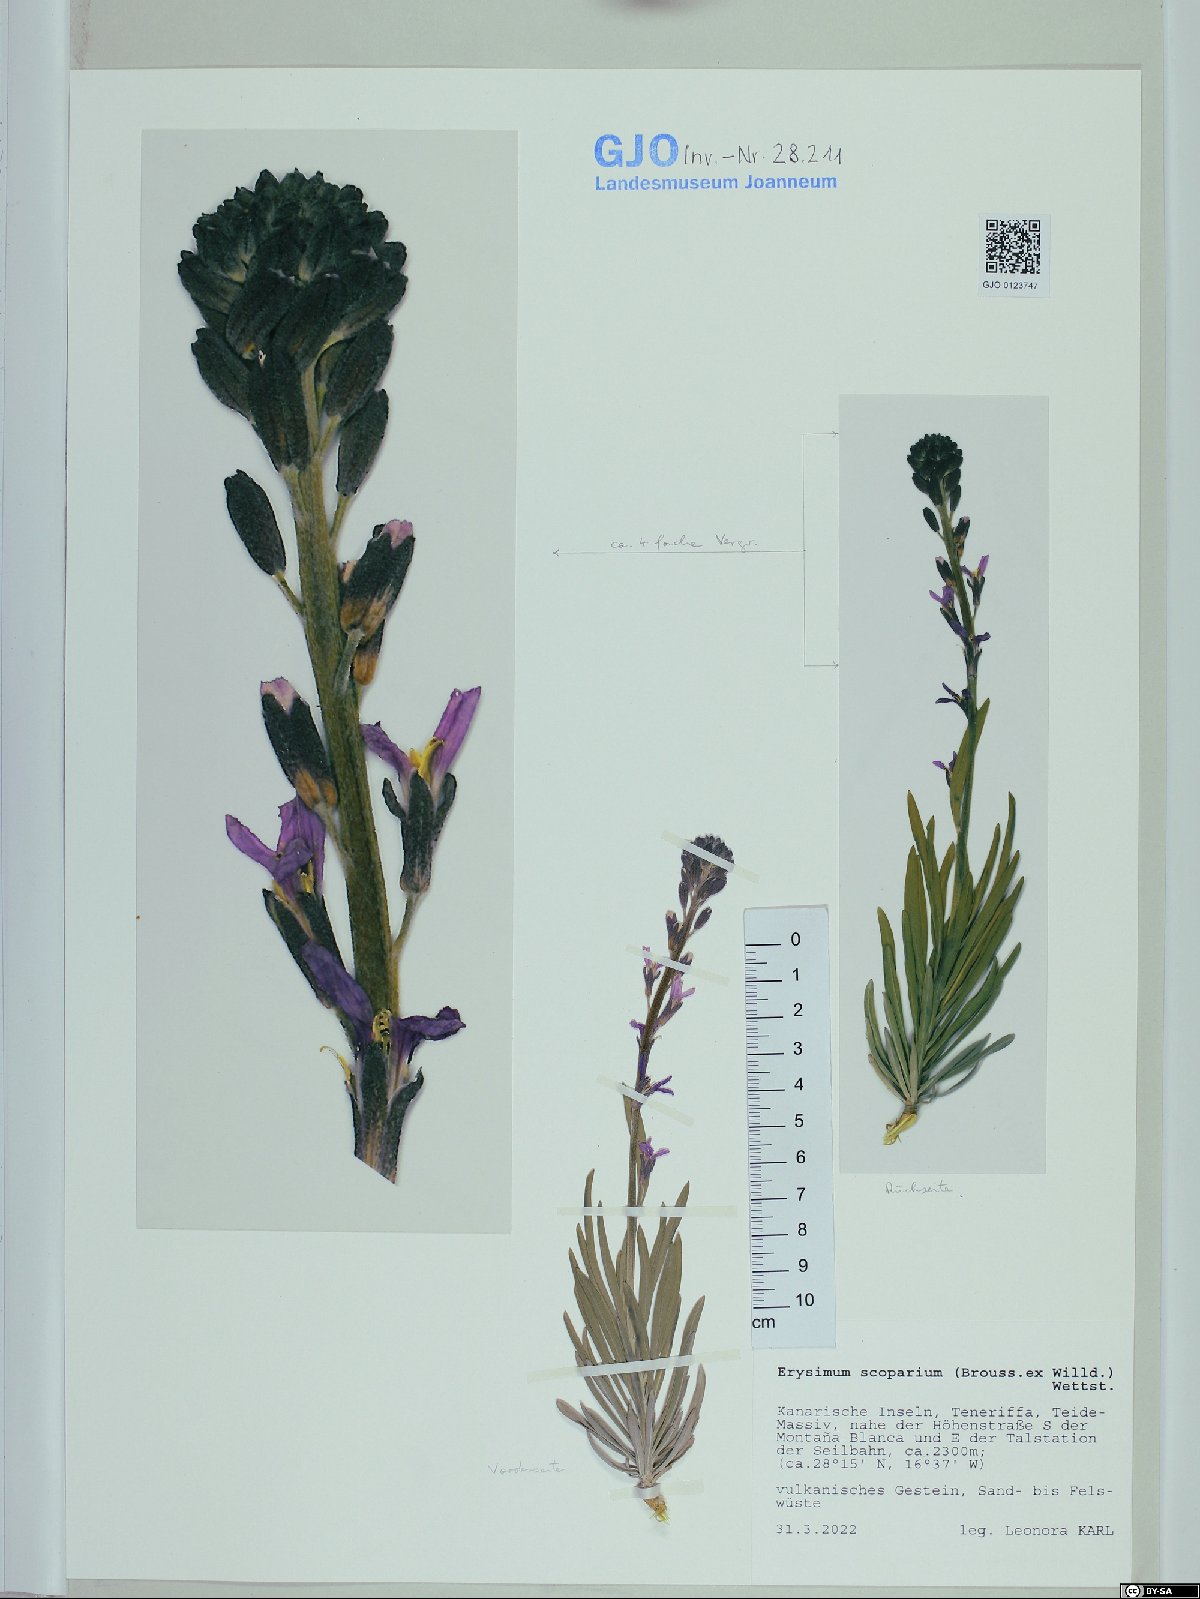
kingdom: Plantae
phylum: Tracheophyta
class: Magnoliopsida
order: Brassicales
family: Brassicaceae
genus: Erysimum
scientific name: Erysimum scoparium
